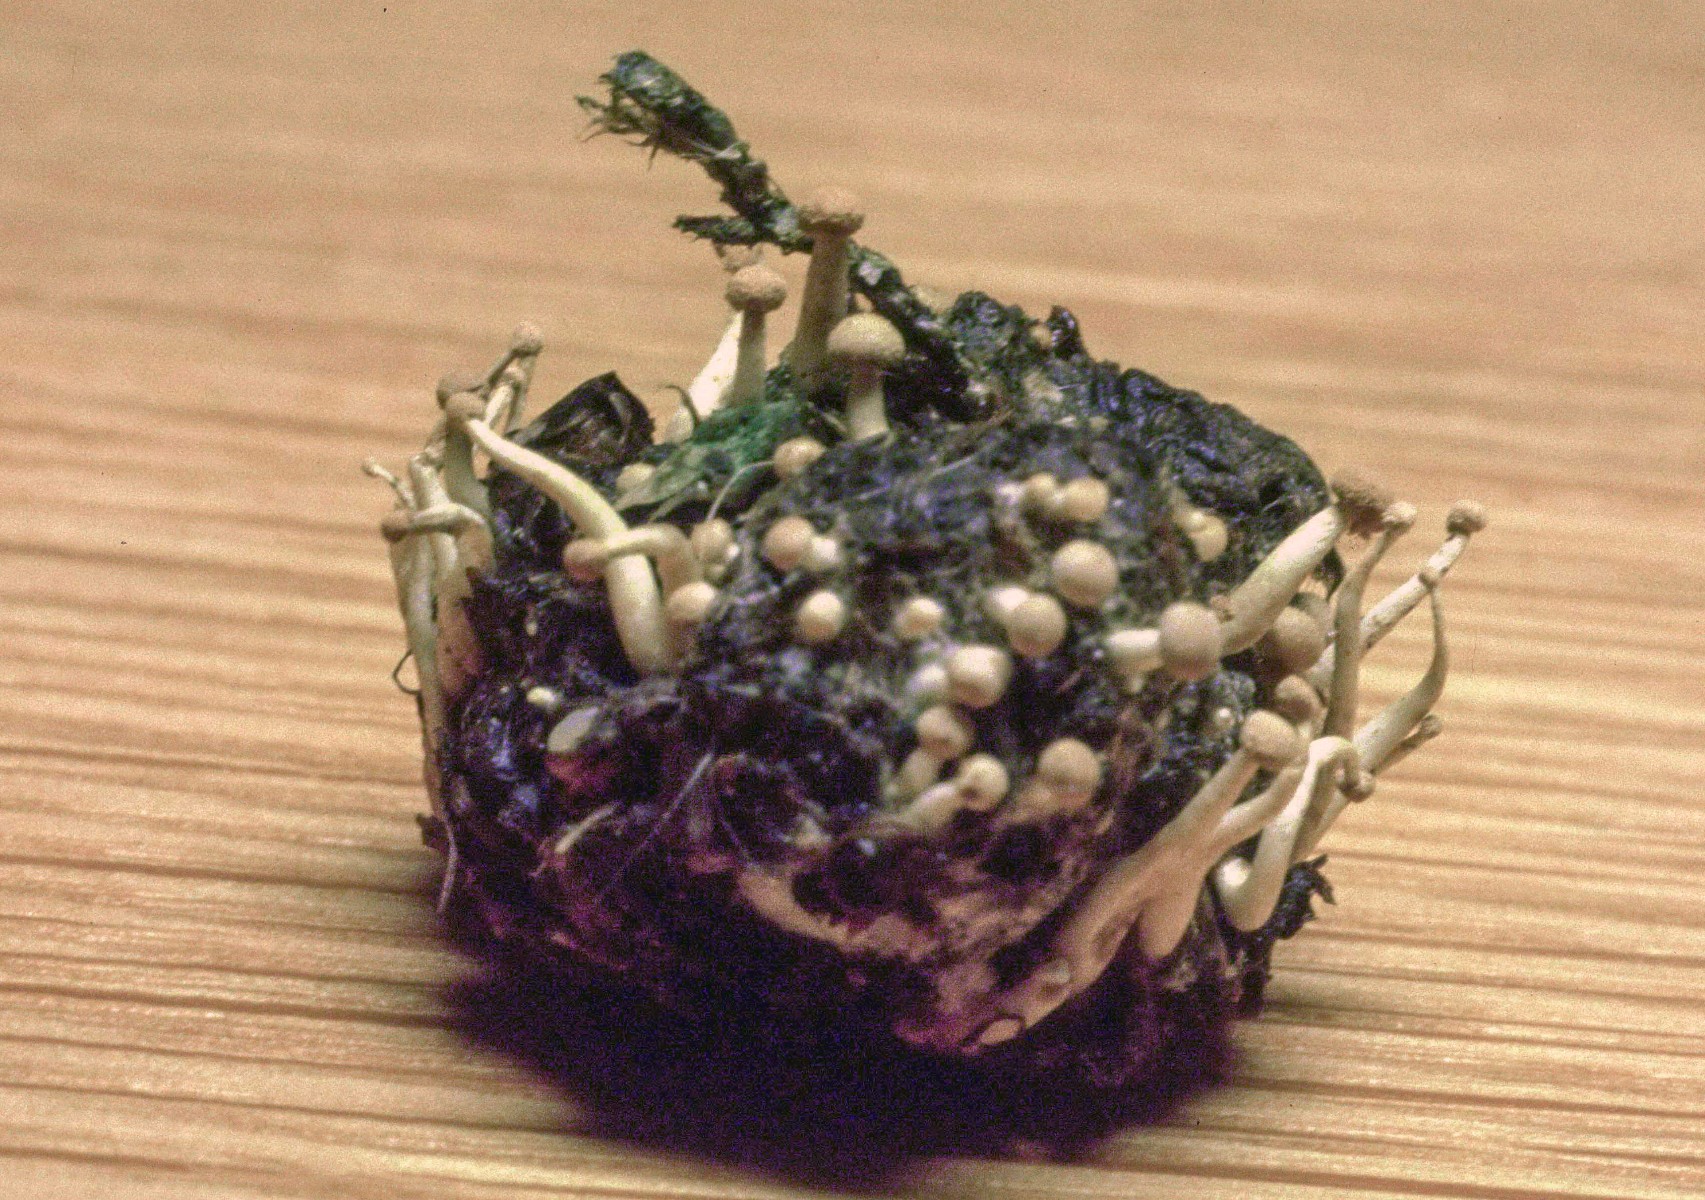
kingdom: Fungi
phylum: Ascomycota
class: Eurotiomycetes
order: Onygenales
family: Onygenaceae
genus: Onygena
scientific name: Onygena corvina
